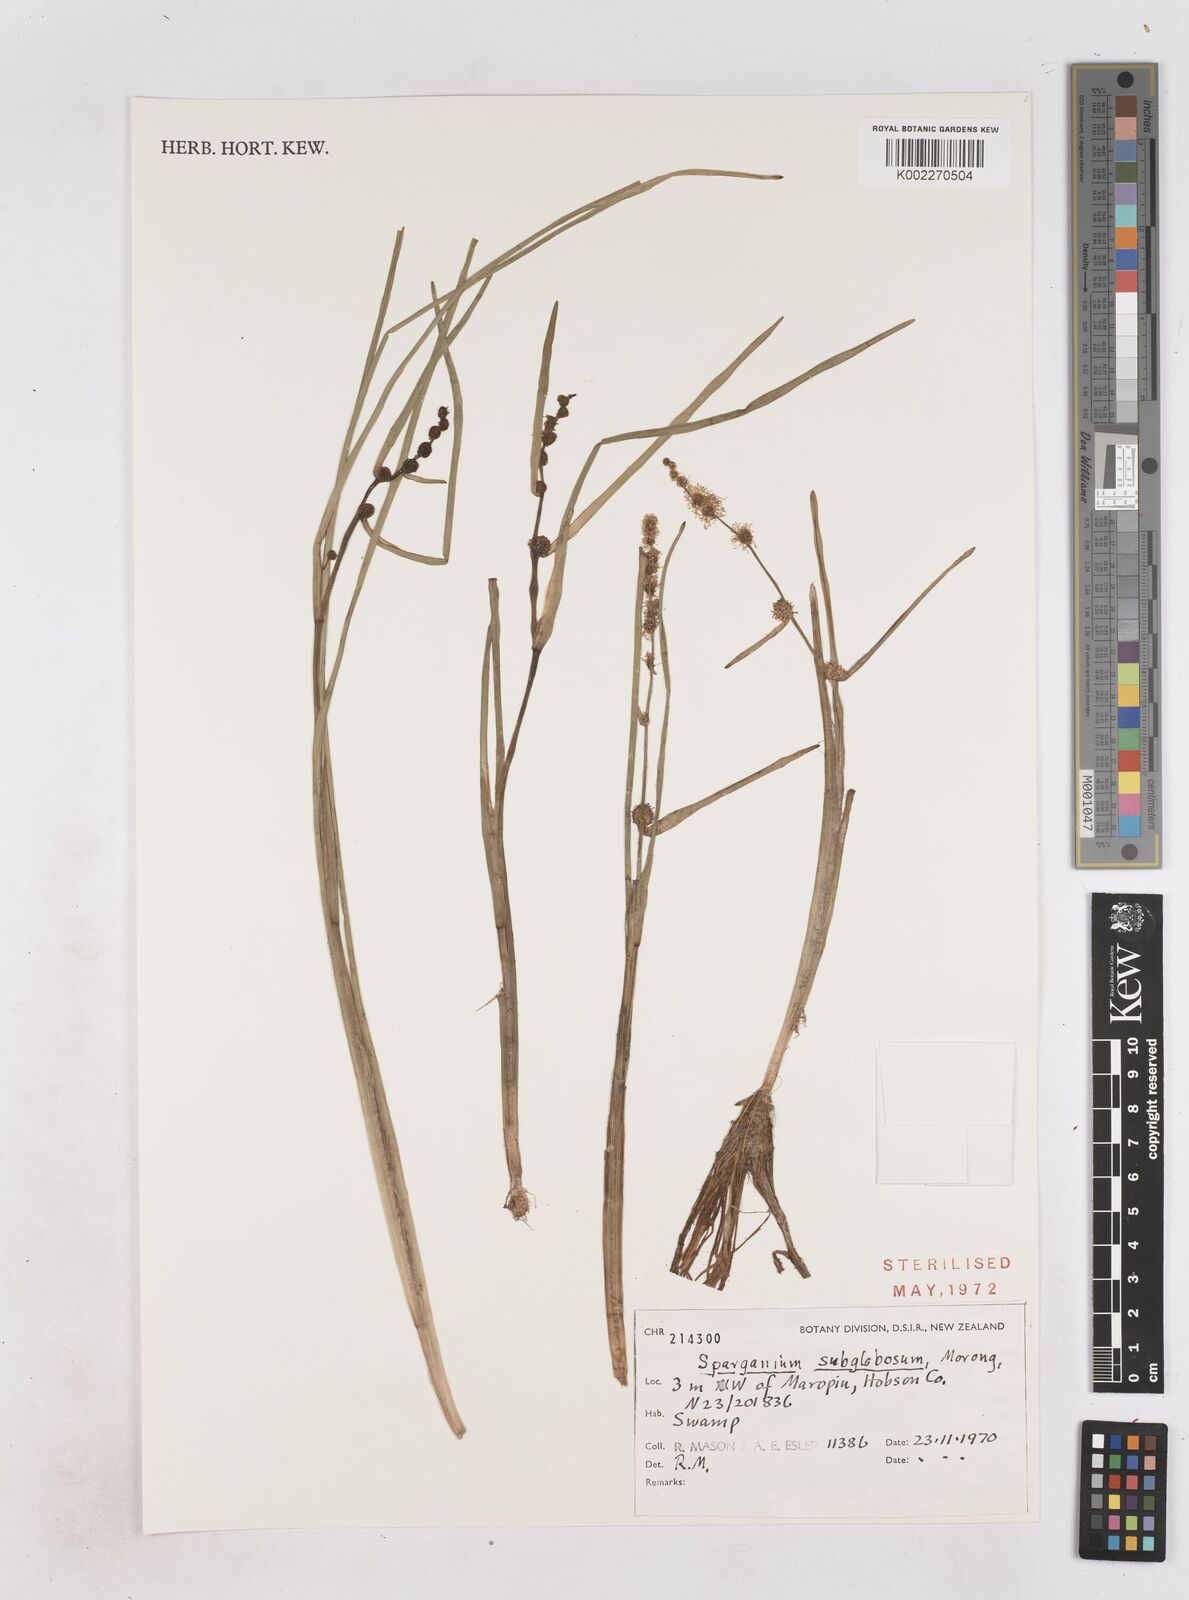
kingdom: Plantae
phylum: Tracheophyta
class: Liliopsida
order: Poales
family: Typhaceae
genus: Sparganium
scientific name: Sparganium subglobosum
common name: Burr­-reed
